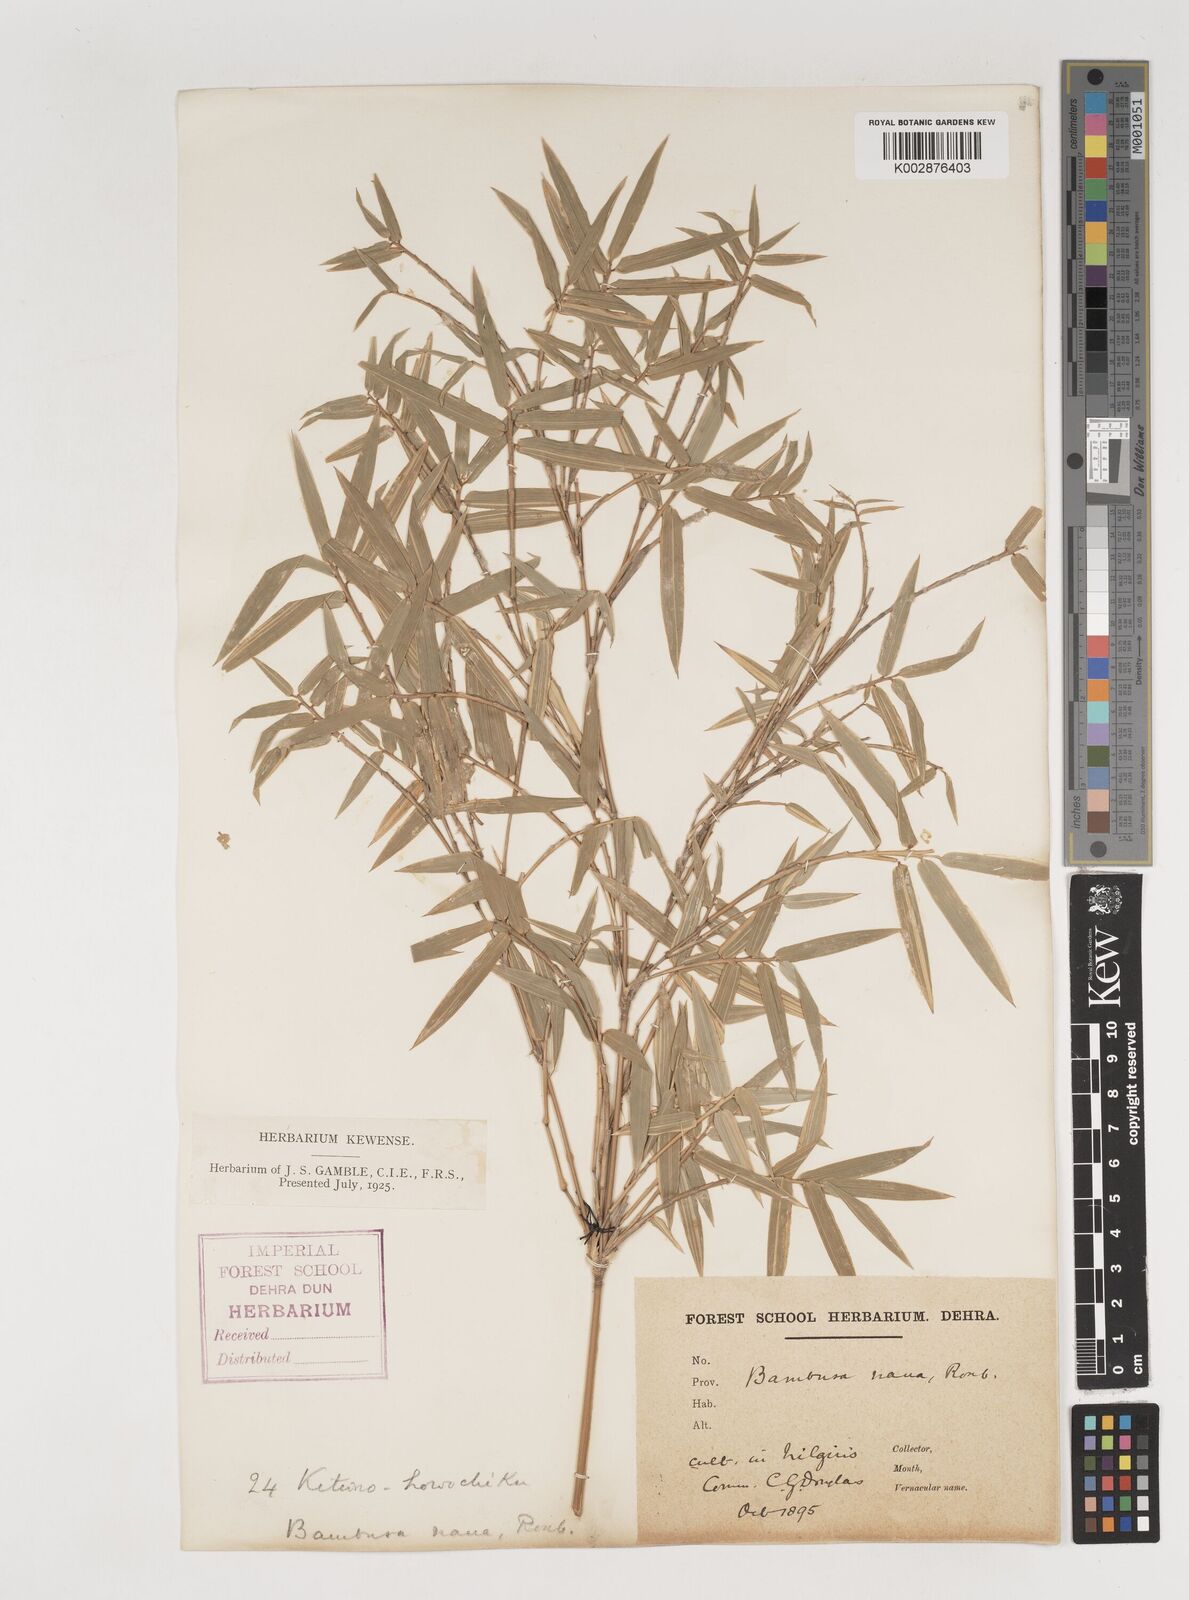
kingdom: Plantae
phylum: Tracheophyta
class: Liliopsida
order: Poales
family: Poaceae
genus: Bambusa
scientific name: Bambusa multiplex
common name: Hedge bamboo
